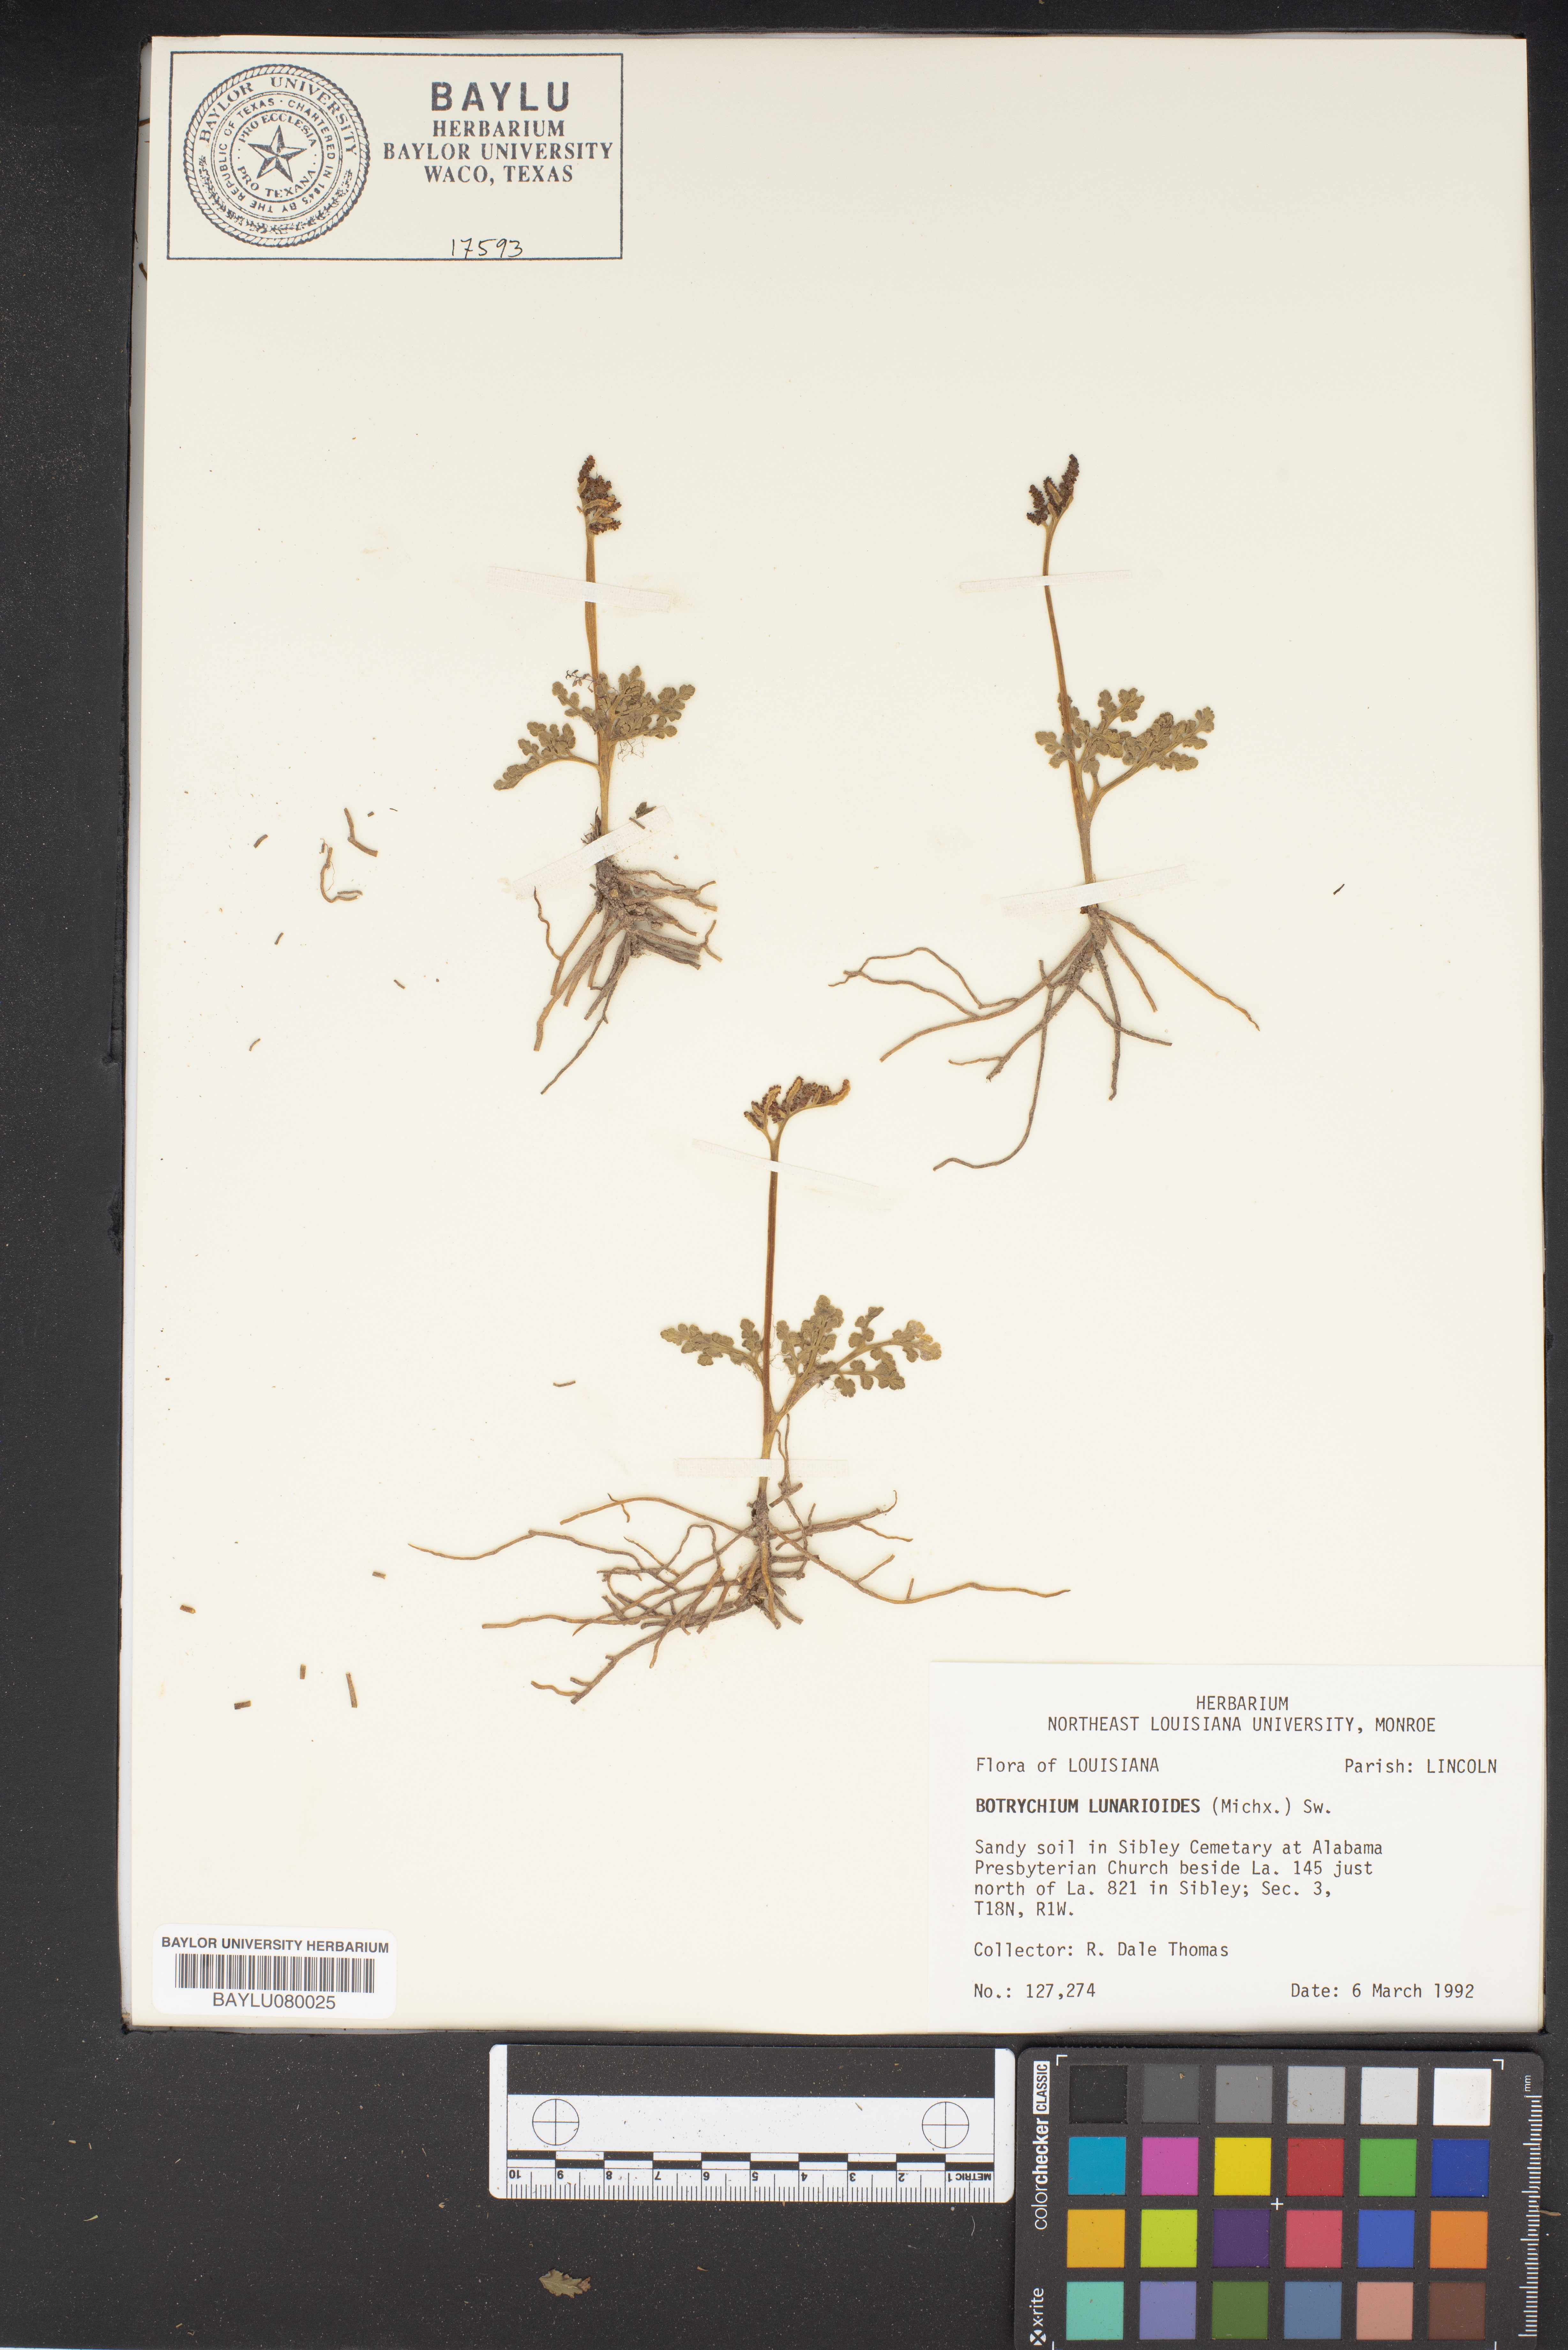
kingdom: Plantae
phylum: Tracheophyta
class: Polypodiopsida
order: Ophioglossales
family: Ophioglossaceae
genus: Sceptridium
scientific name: Sceptridium lunarioides
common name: Prostrate grapefern
